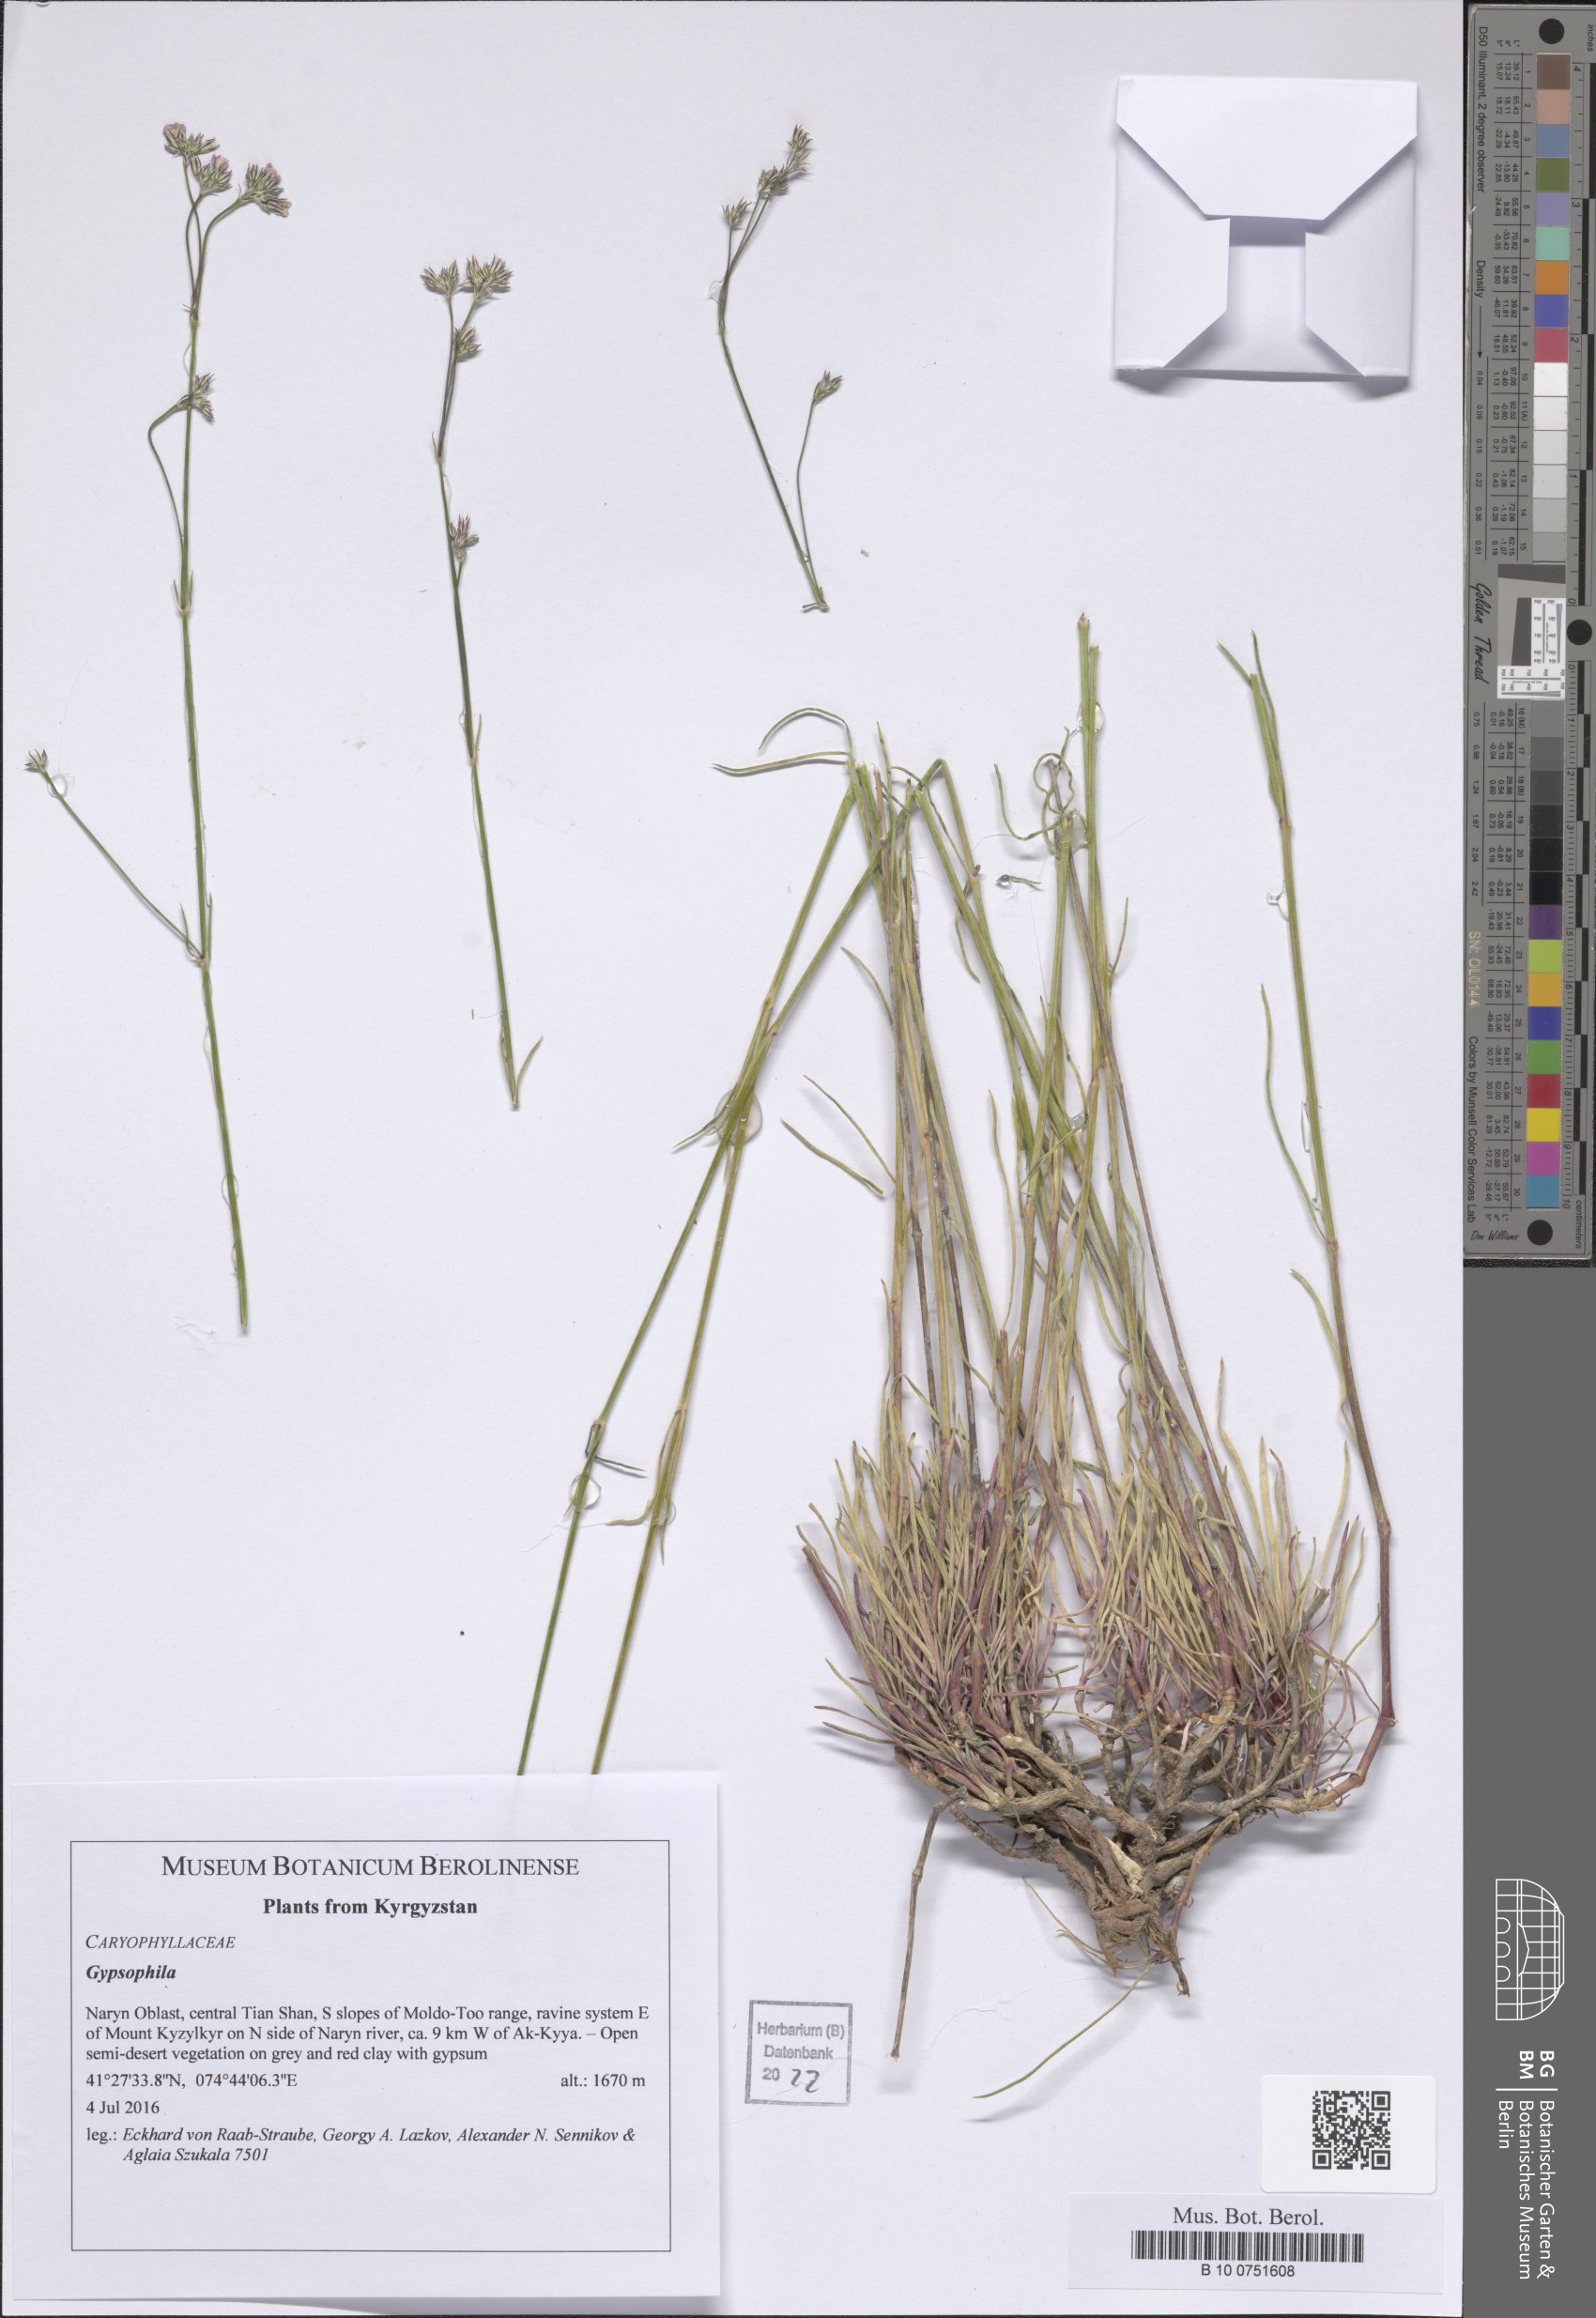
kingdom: Plantae
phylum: Tracheophyta
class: Magnoliopsida
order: Caryophyllales
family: Caryophyllaceae
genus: Gypsophila
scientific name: Gypsophila
